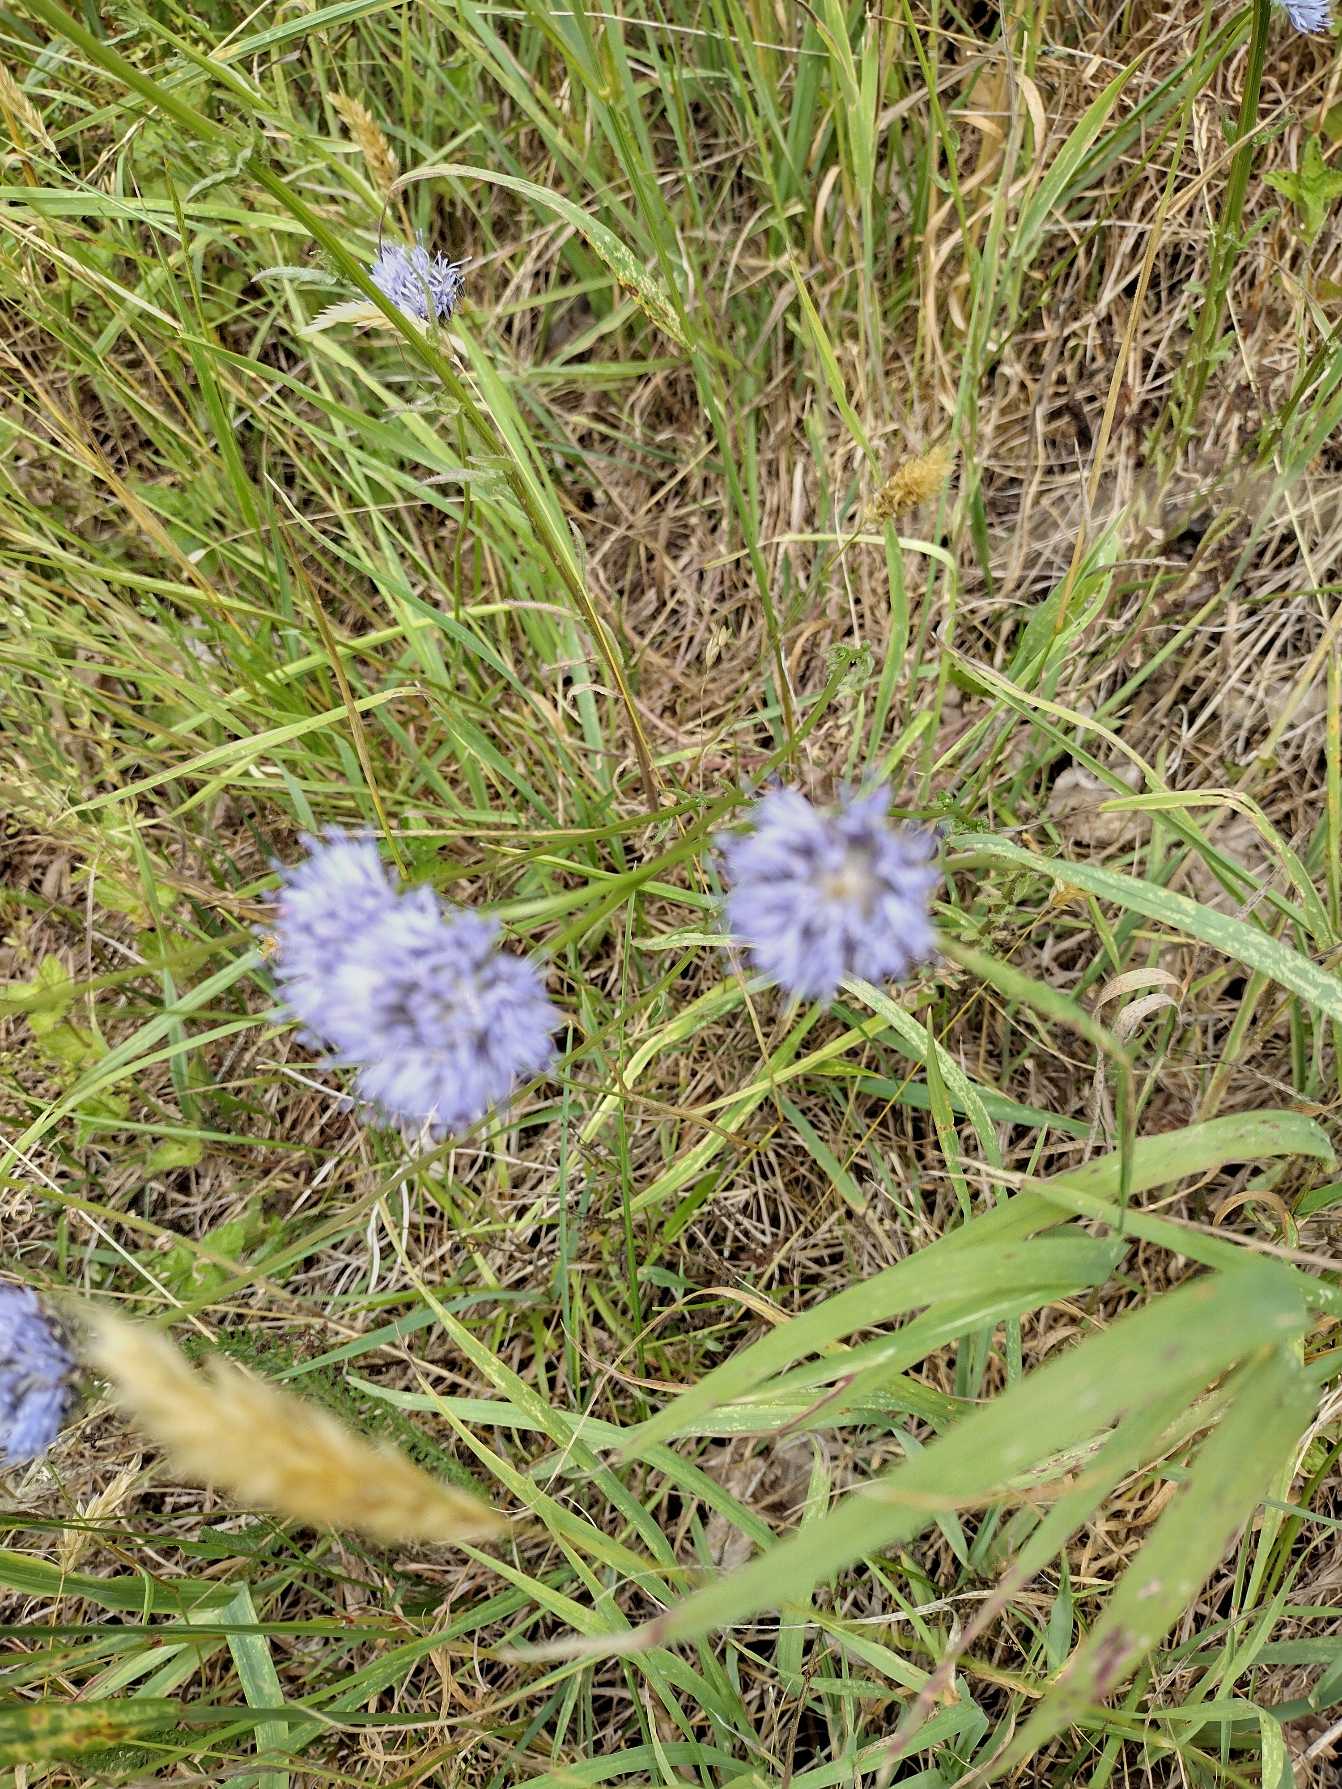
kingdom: Plantae
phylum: Tracheophyta
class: Magnoliopsida
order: Asterales
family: Campanulaceae
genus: Jasione
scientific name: Jasione montana
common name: Blåmunke
